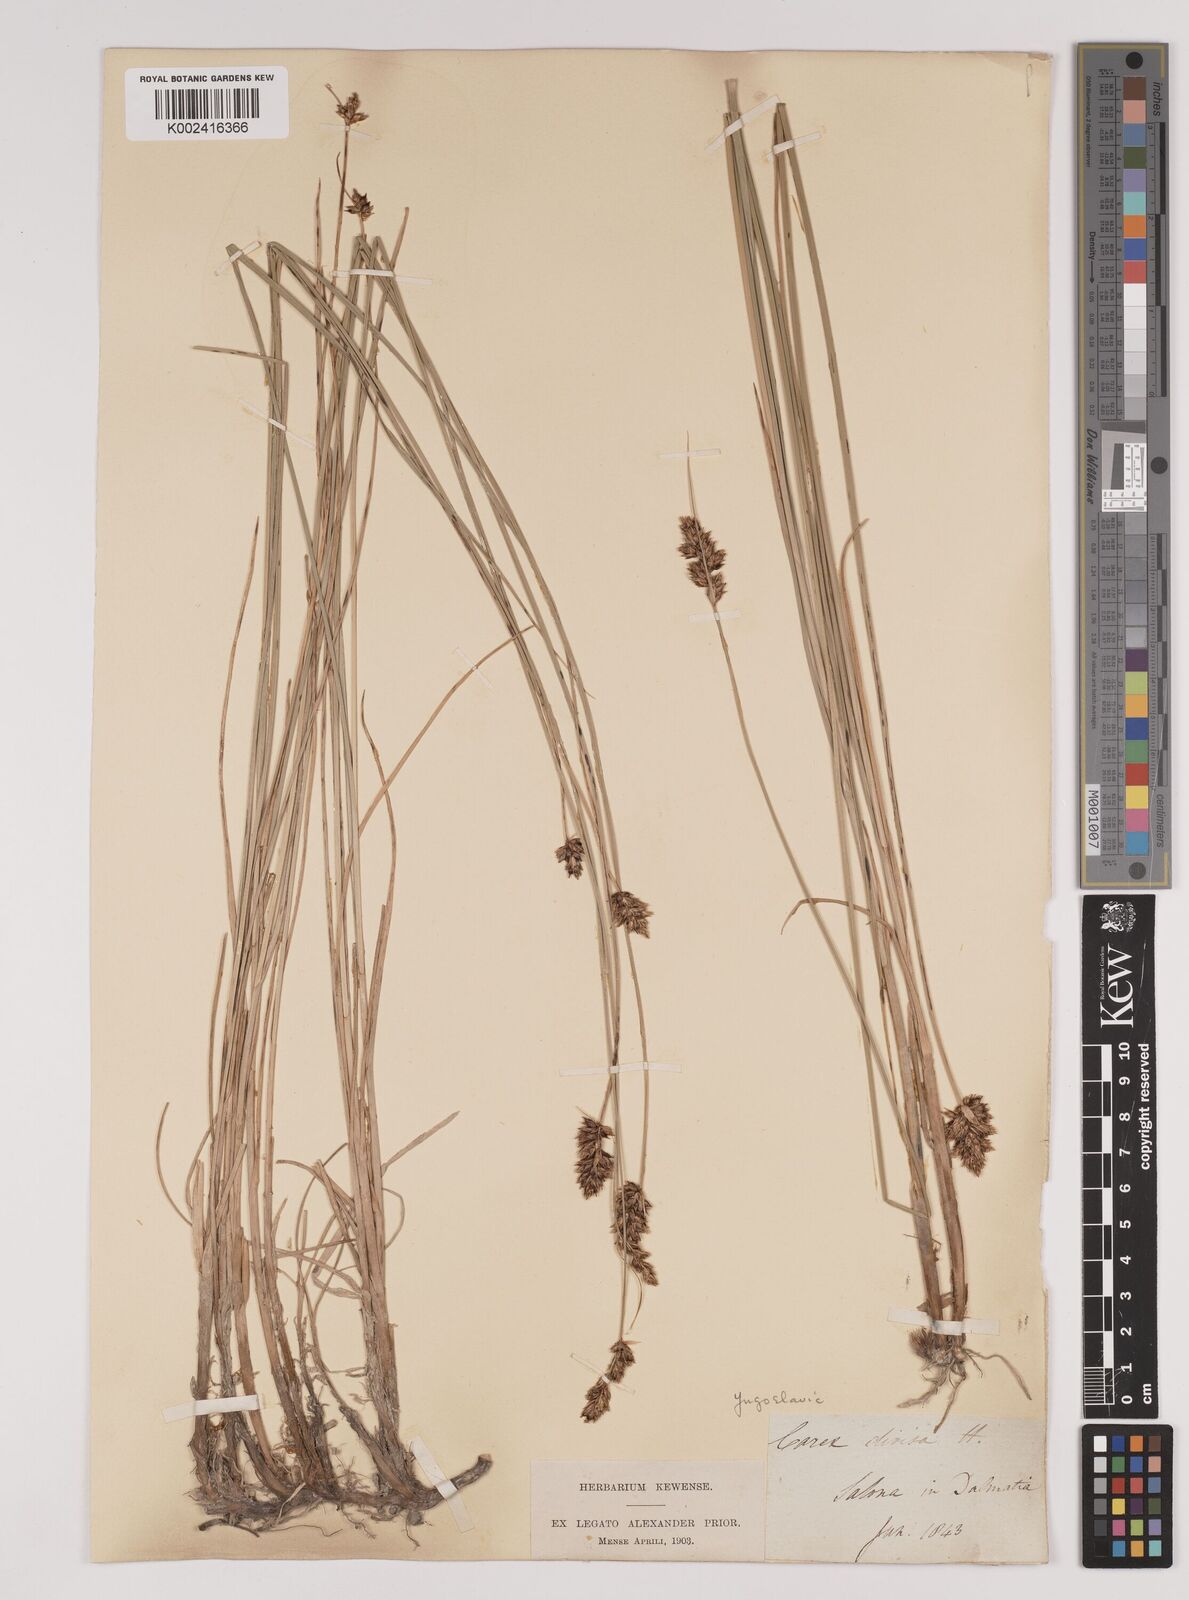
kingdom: Plantae
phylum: Tracheophyta
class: Liliopsida
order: Poales
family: Cyperaceae
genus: Carex
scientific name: Carex divisa
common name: Divided sedge
